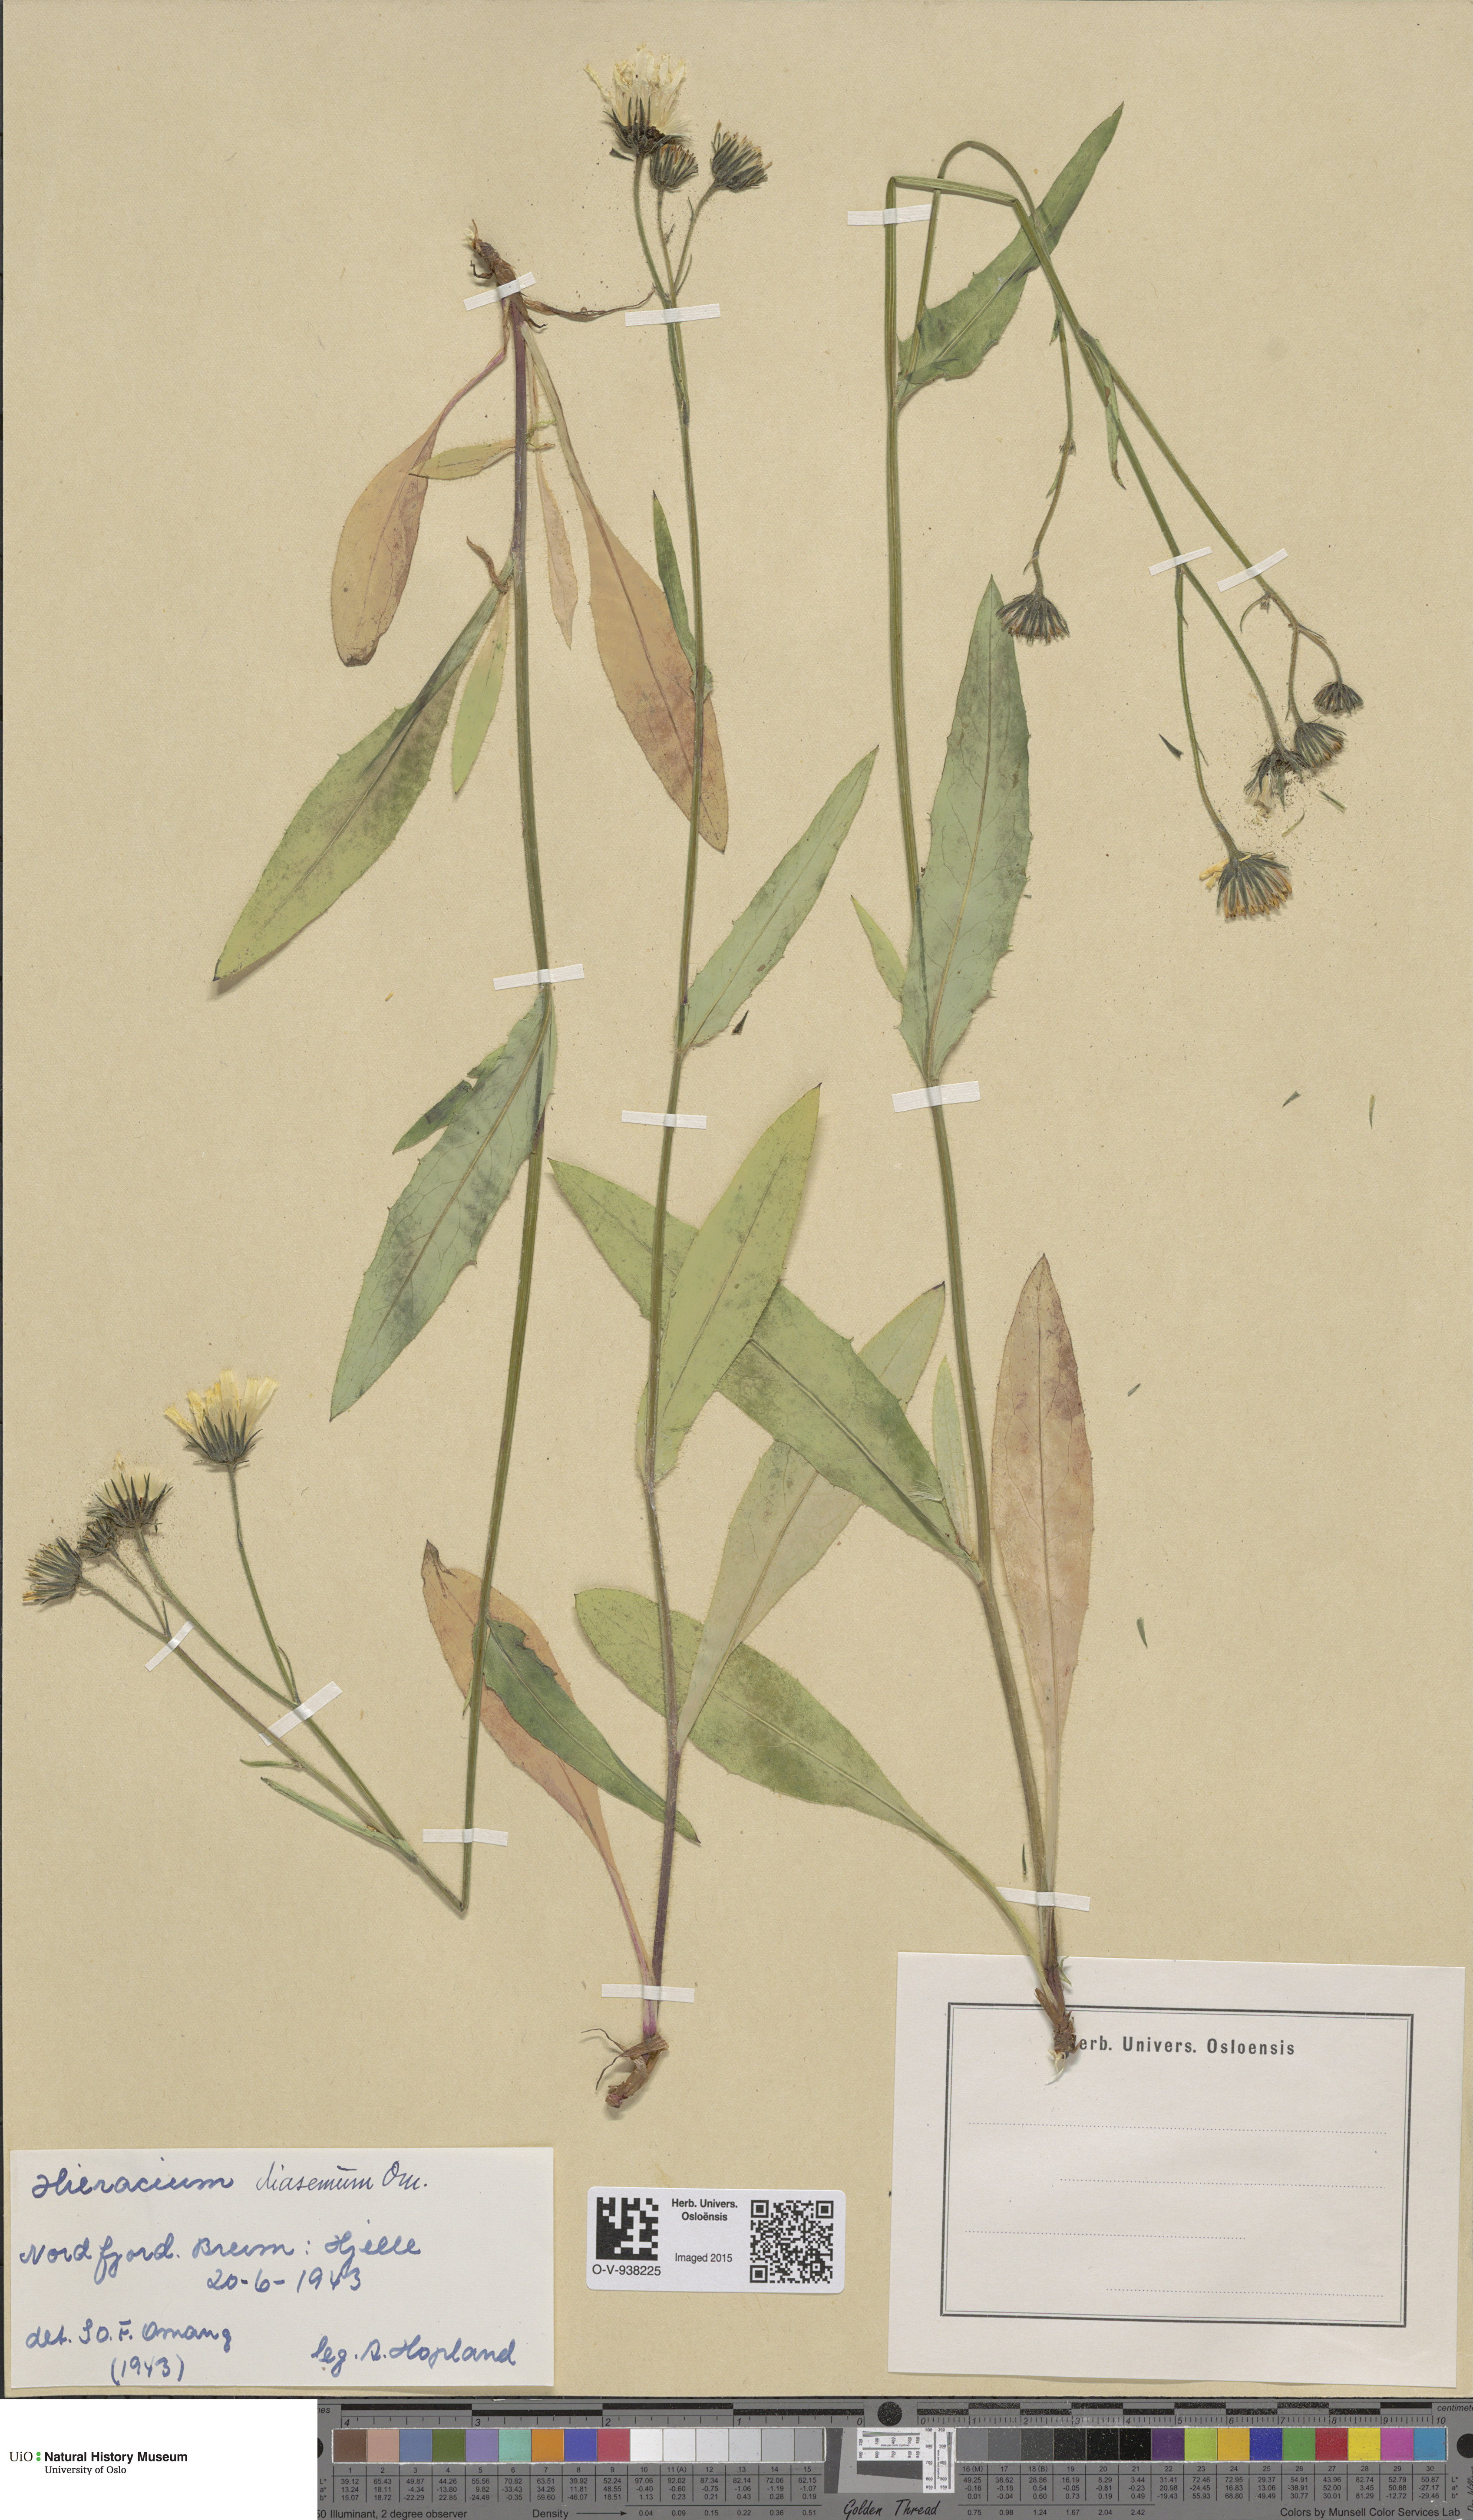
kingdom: Plantae
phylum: Tracheophyta
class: Magnoliopsida
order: Asterales
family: Asteraceae
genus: Hieracium
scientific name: Hieracium saxifragum
